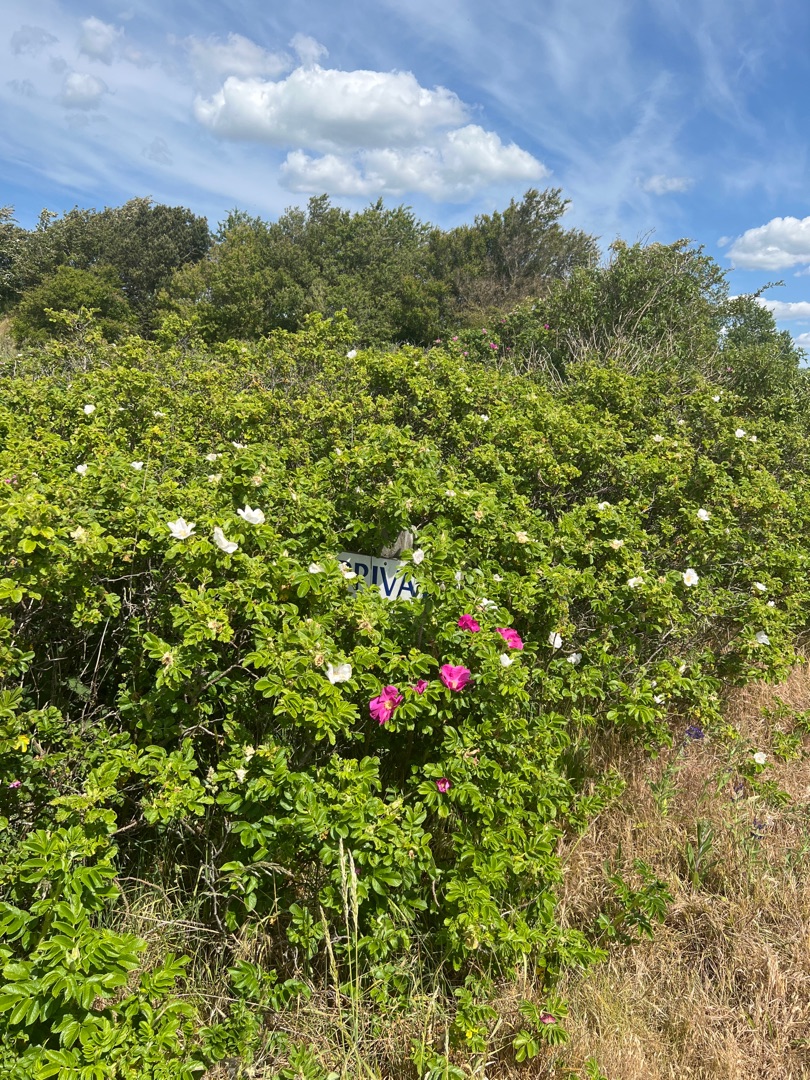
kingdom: Plantae
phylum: Tracheophyta
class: Magnoliopsida
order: Rosales
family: Rosaceae
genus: Rosa
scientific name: Rosa rugosa
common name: Rynket rose
